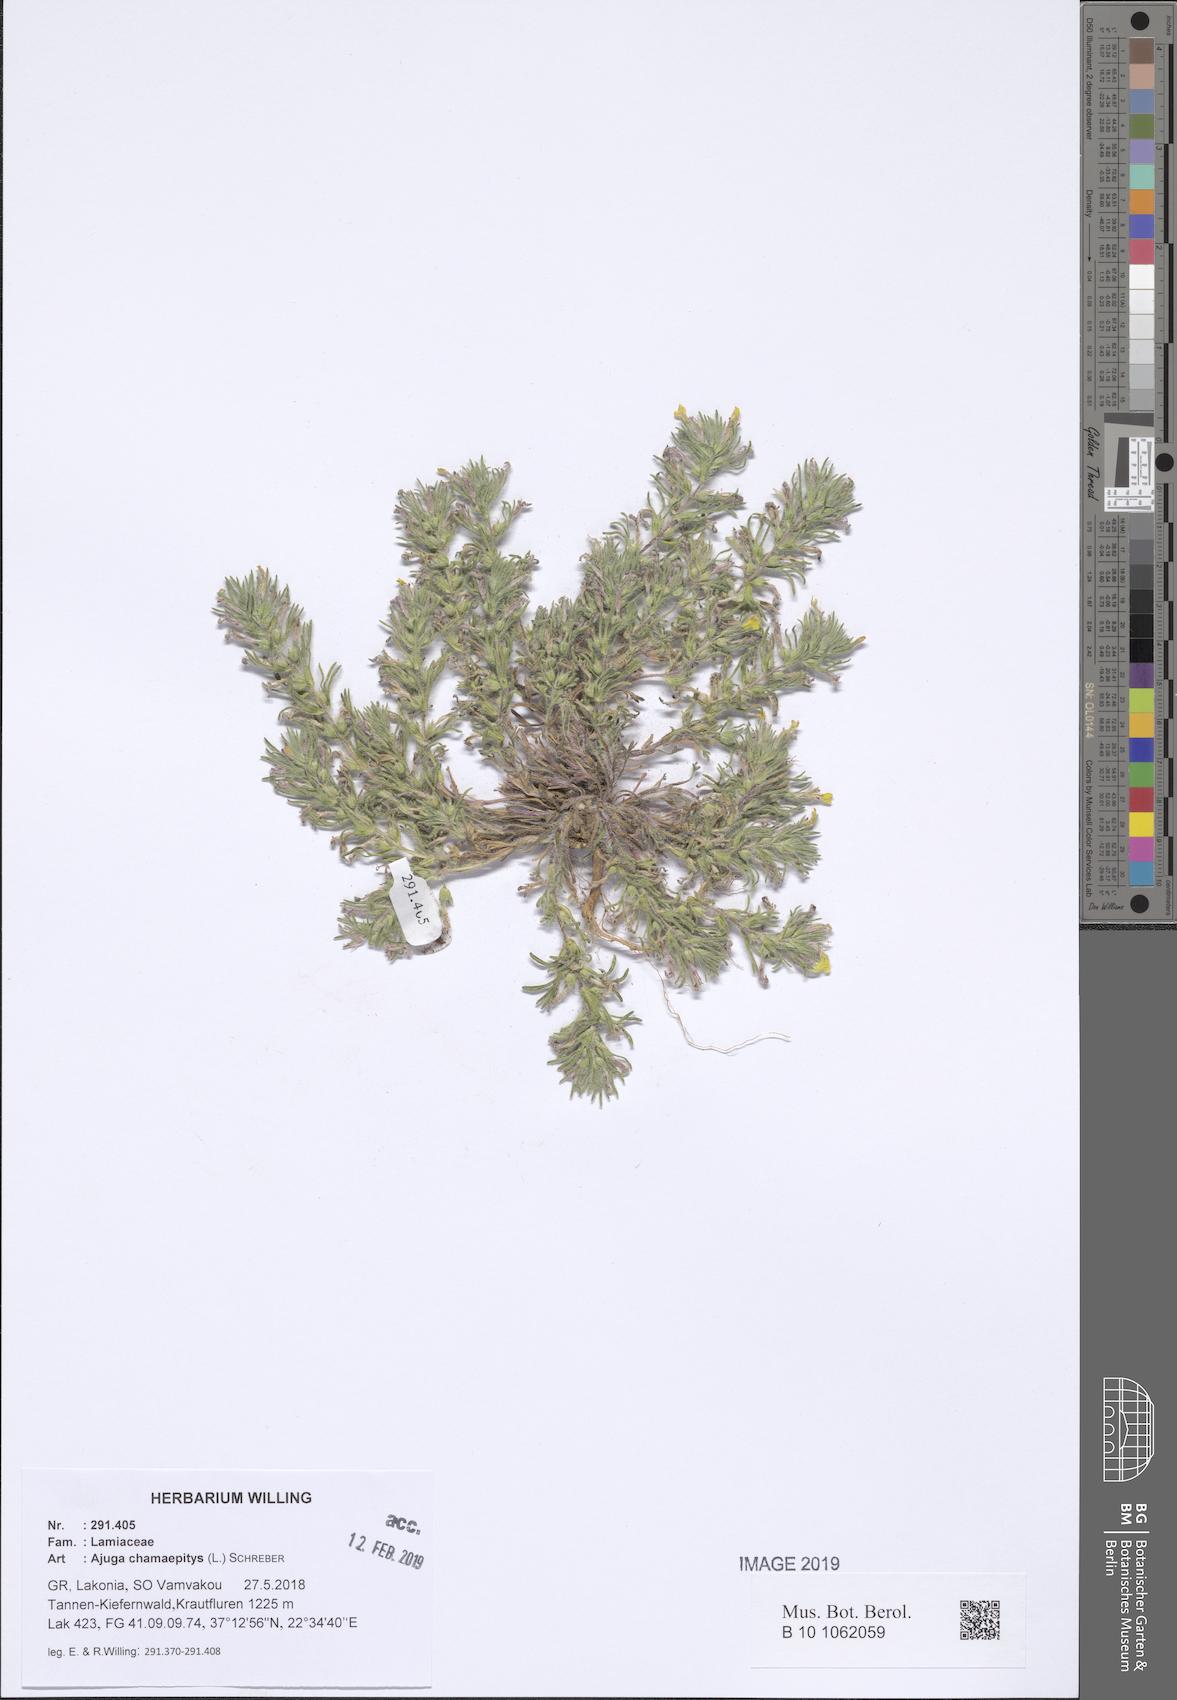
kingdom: Plantae
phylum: Tracheophyta
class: Magnoliopsida
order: Lamiales
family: Lamiaceae
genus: Ajuga
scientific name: Ajuga chamaepitys
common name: Ground-pine
